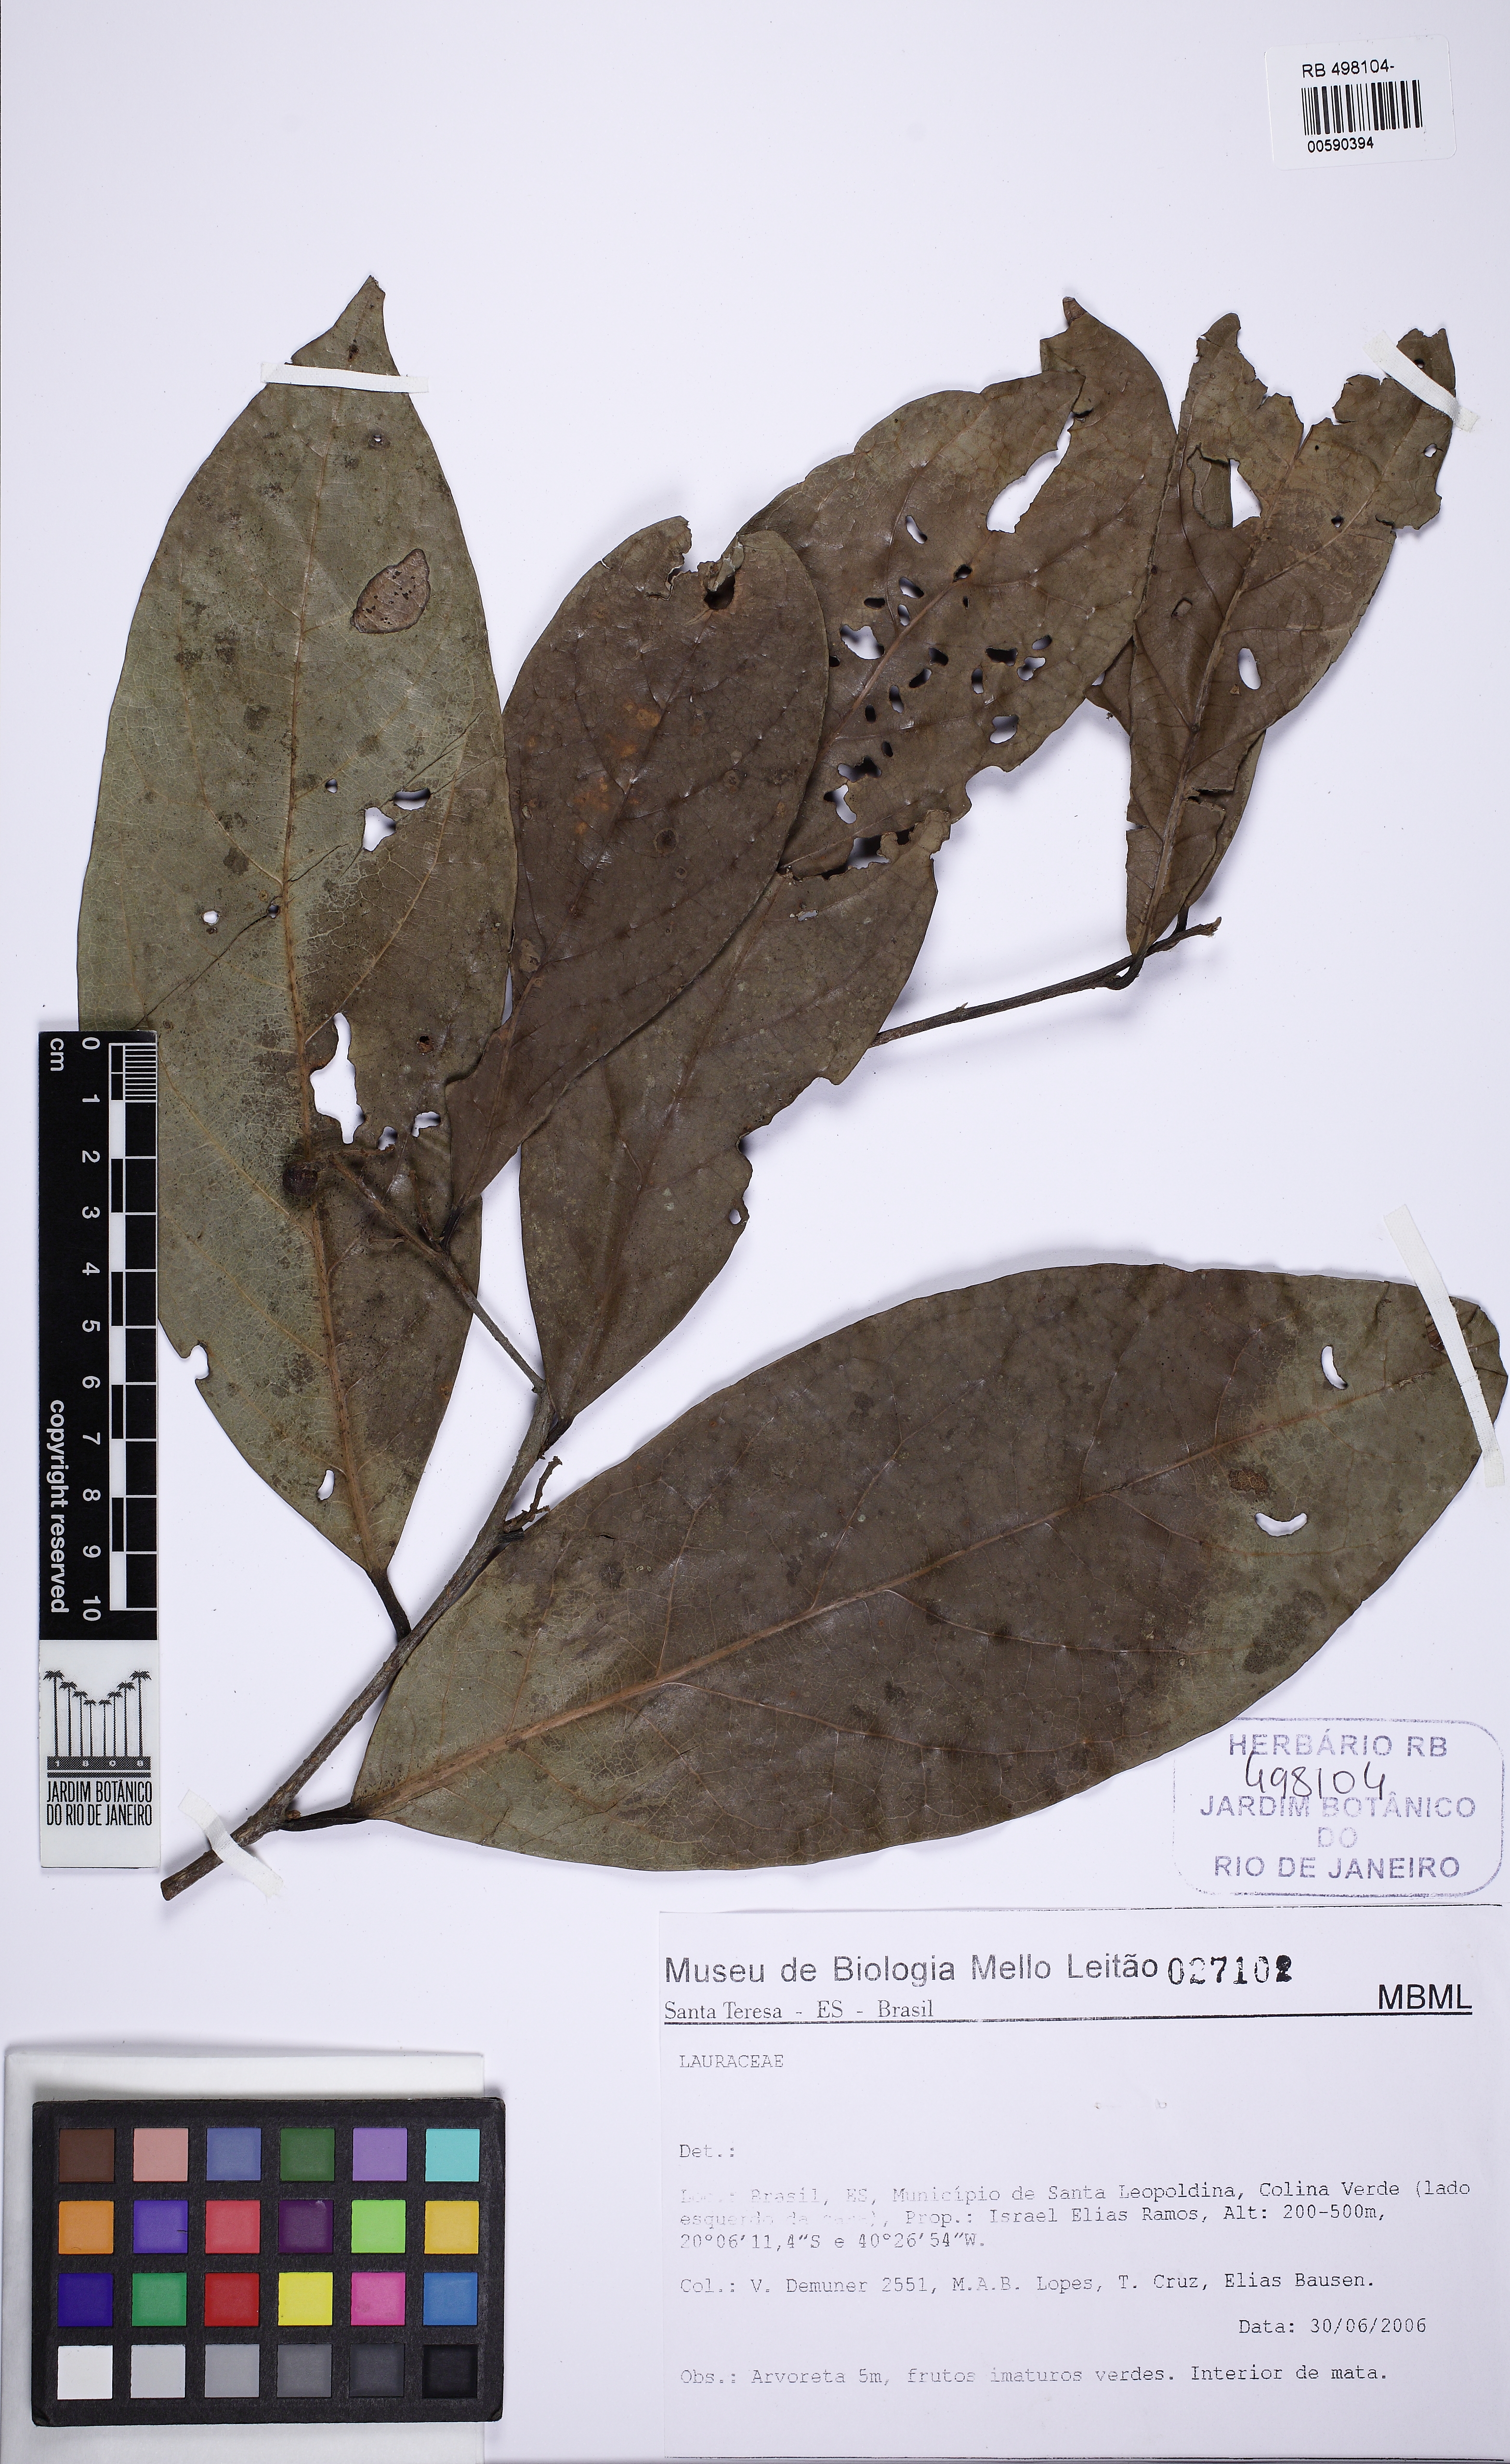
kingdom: Plantae
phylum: Tracheophyta
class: Magnoliopsida
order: Laurales
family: Lauraceae
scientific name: Lauraceae
